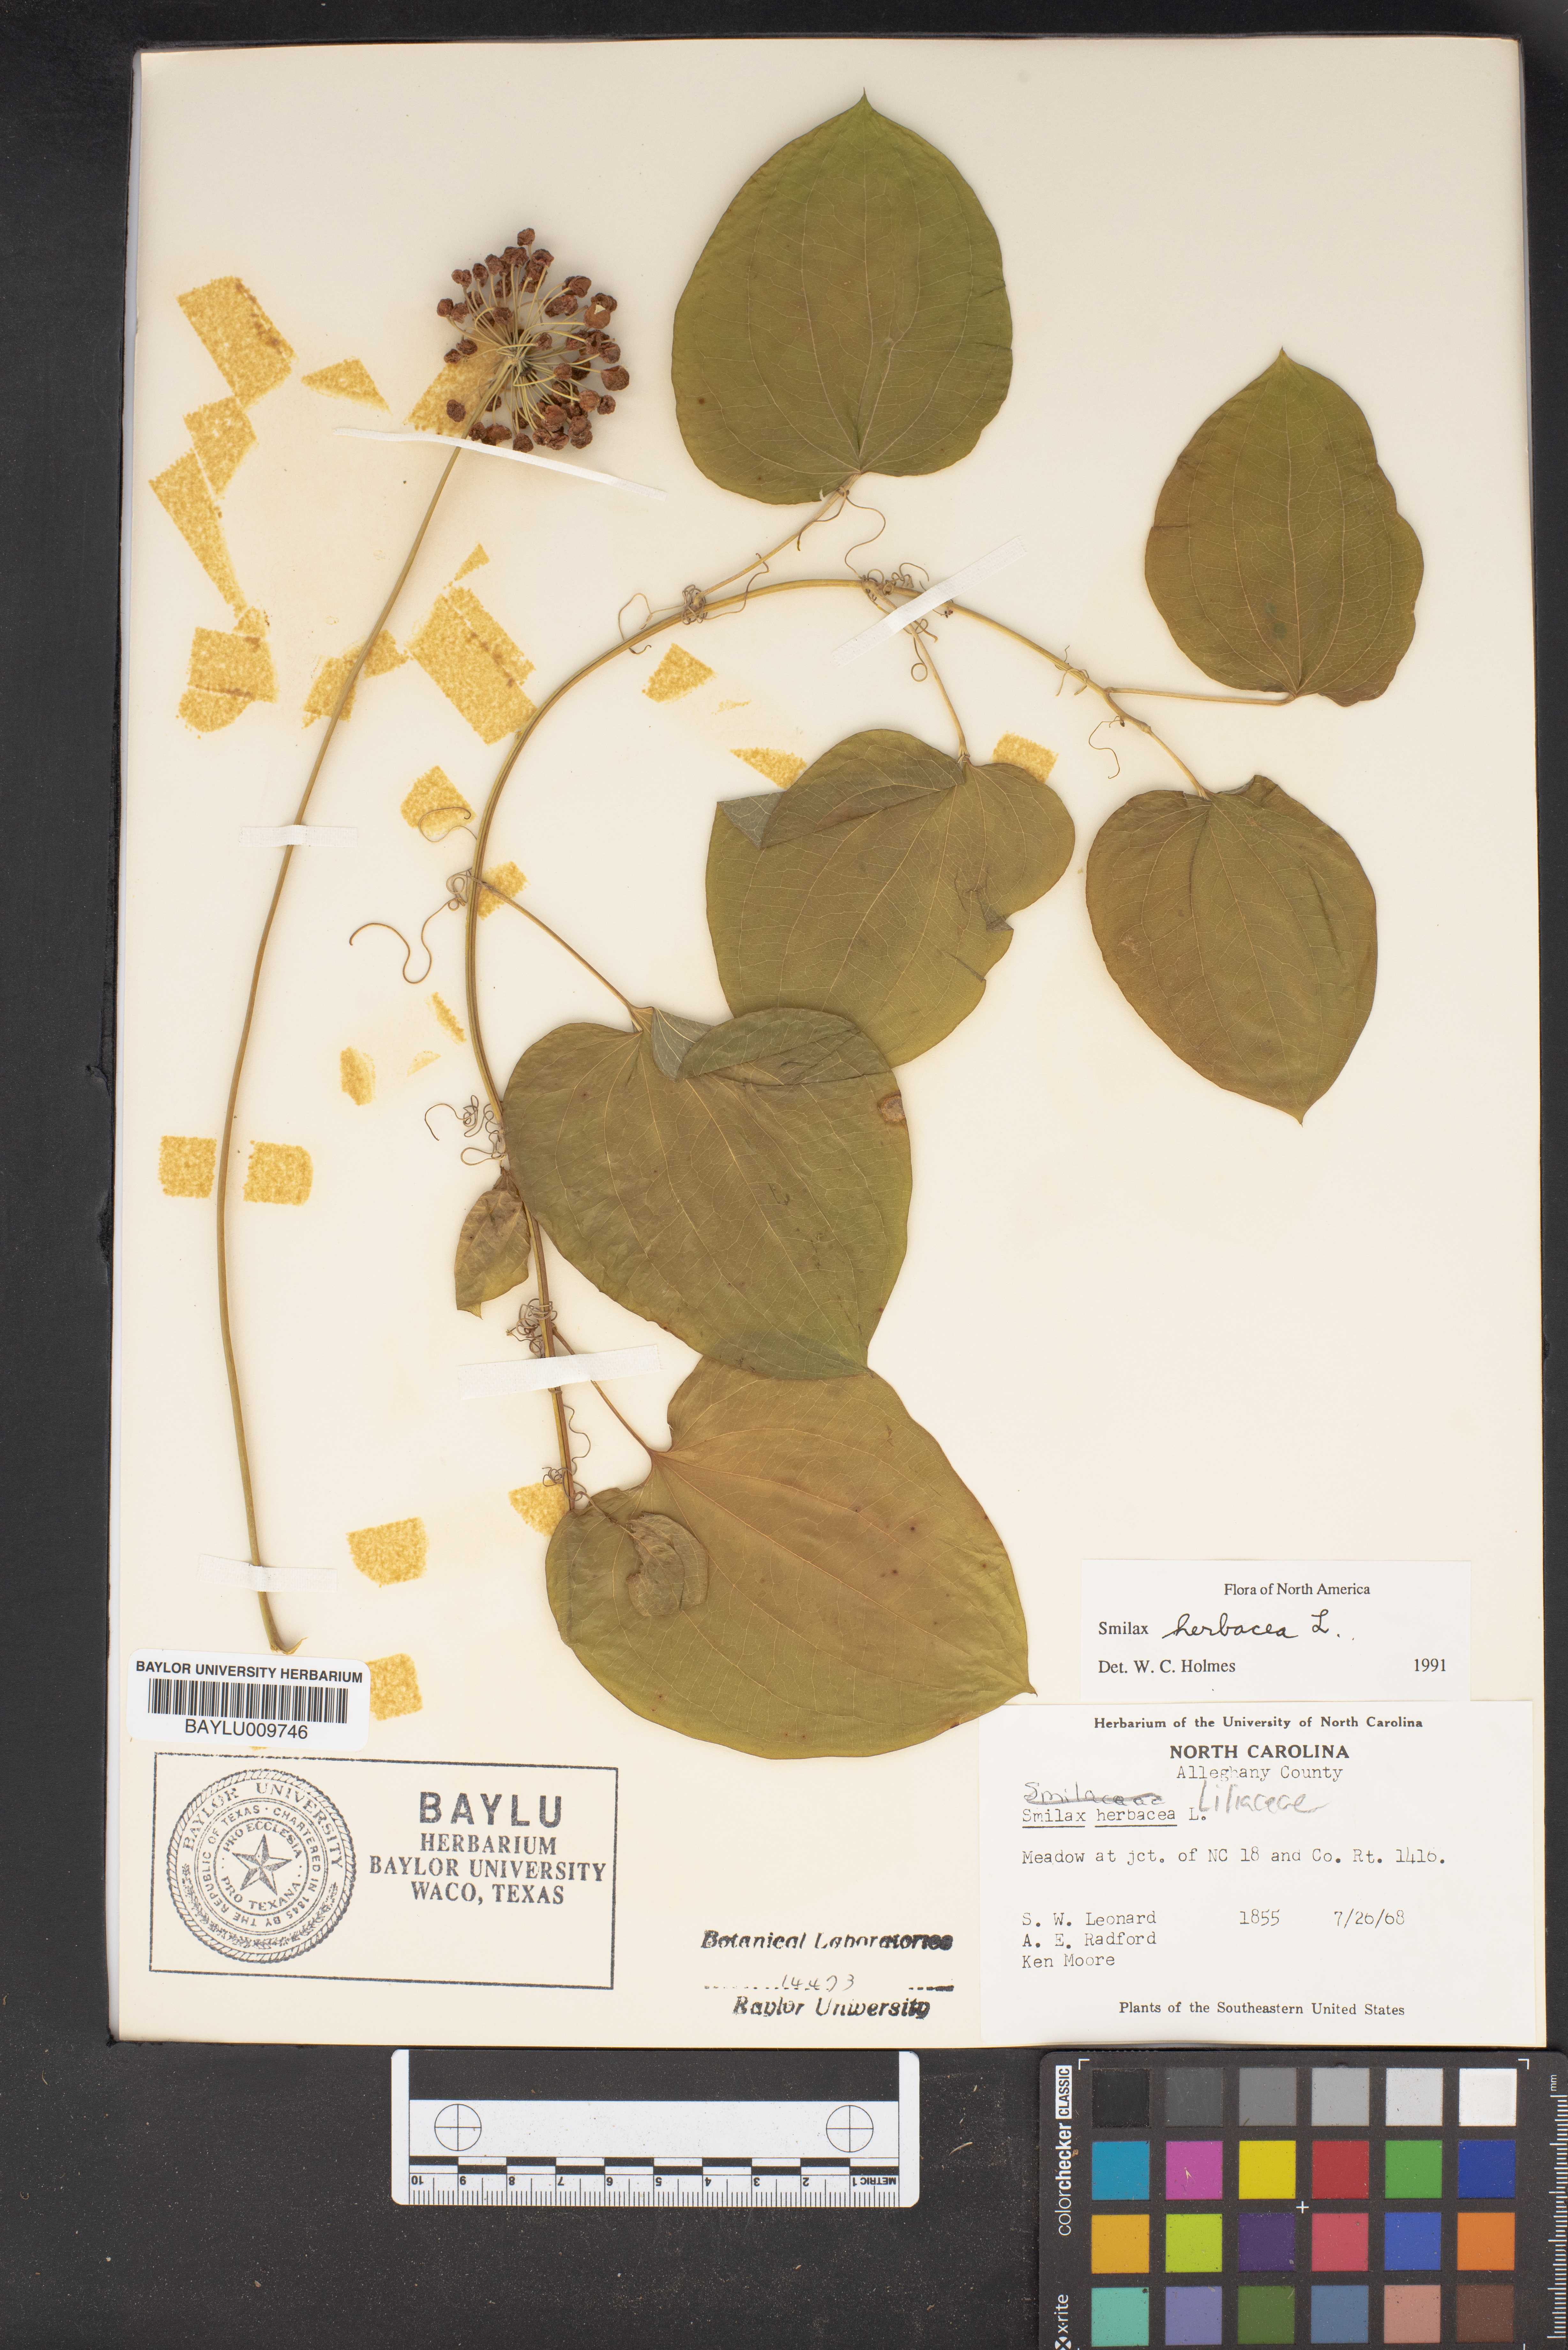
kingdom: Plantae
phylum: Tracheophyta
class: Liliopsida
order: Liliales
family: Smilacaceae
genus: Smilax
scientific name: Smilax herbacea
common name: Jacob's-ladder
